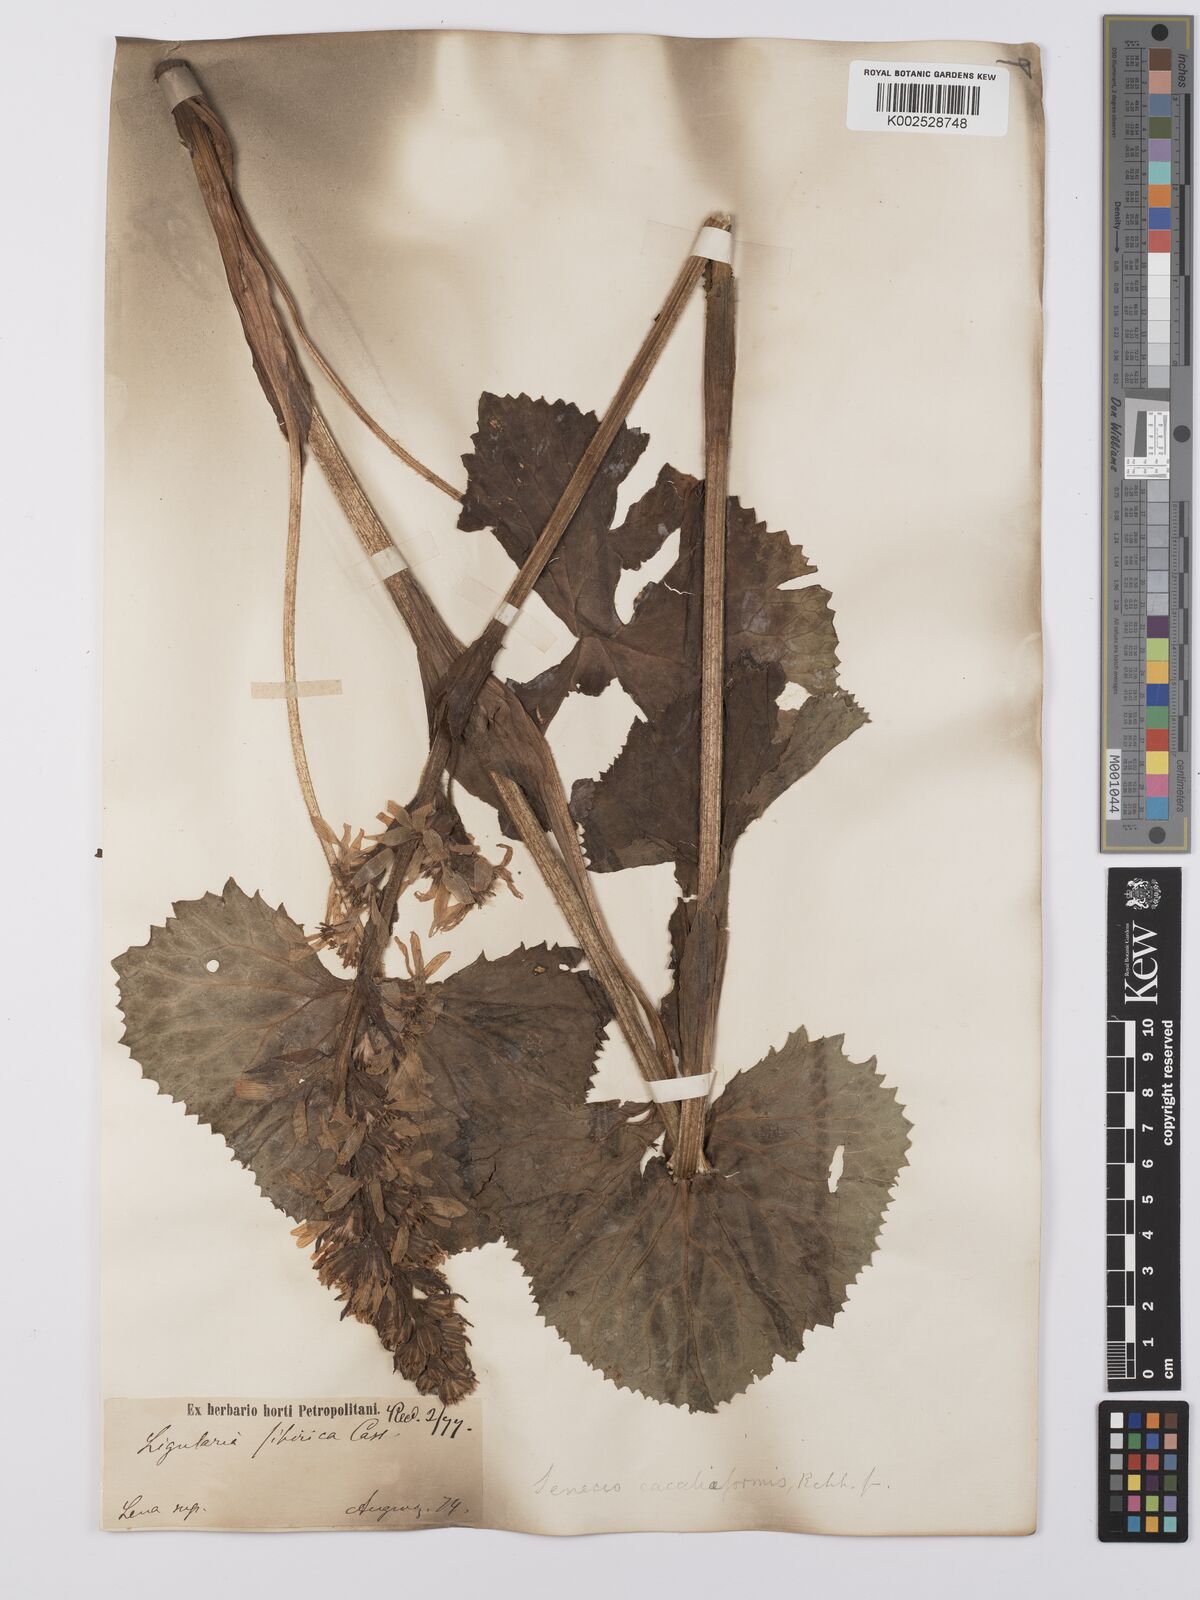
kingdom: Plantae
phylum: Tracheophyta
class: Magnoliopsida
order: Asterales
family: Asteraceae
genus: Ligularia
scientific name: Ligularia fischeri
